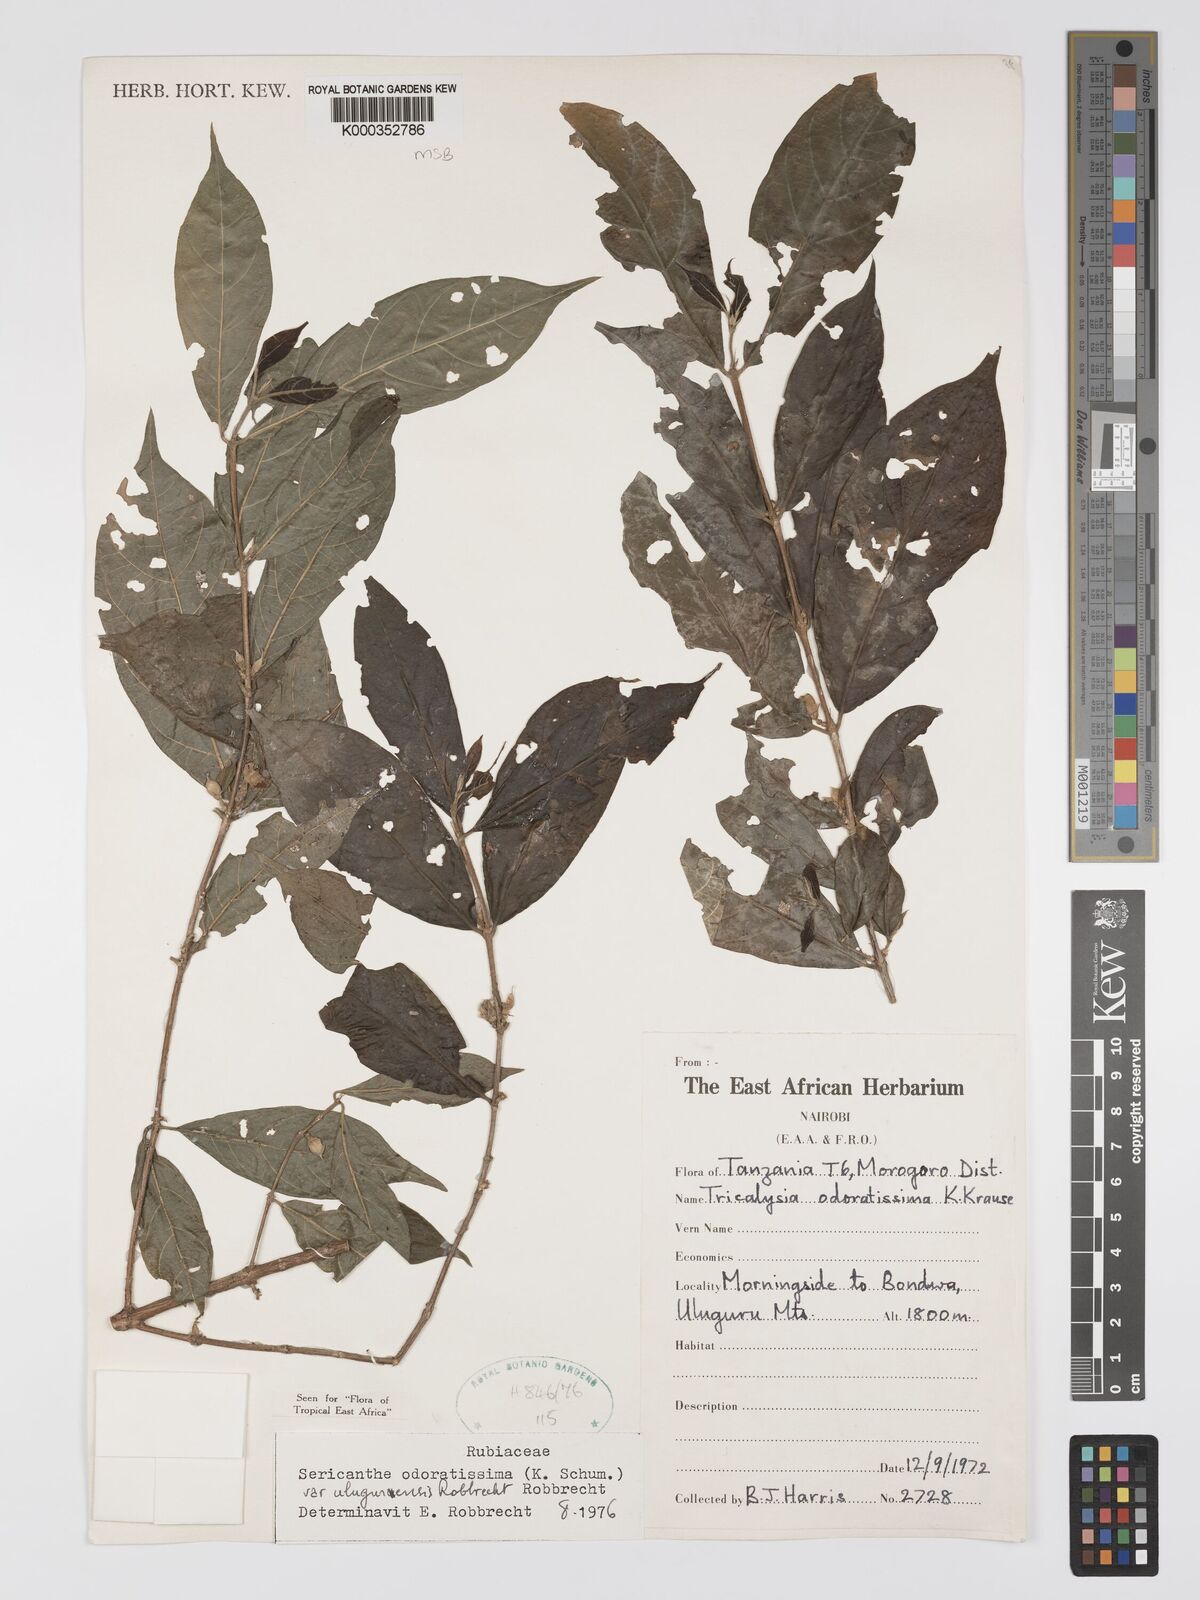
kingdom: Plantae
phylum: Tracheophyta
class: Magnoliopsida
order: Gentianales
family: Rubiaceae
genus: Sericanthe
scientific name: Sericanthe odoratissima
